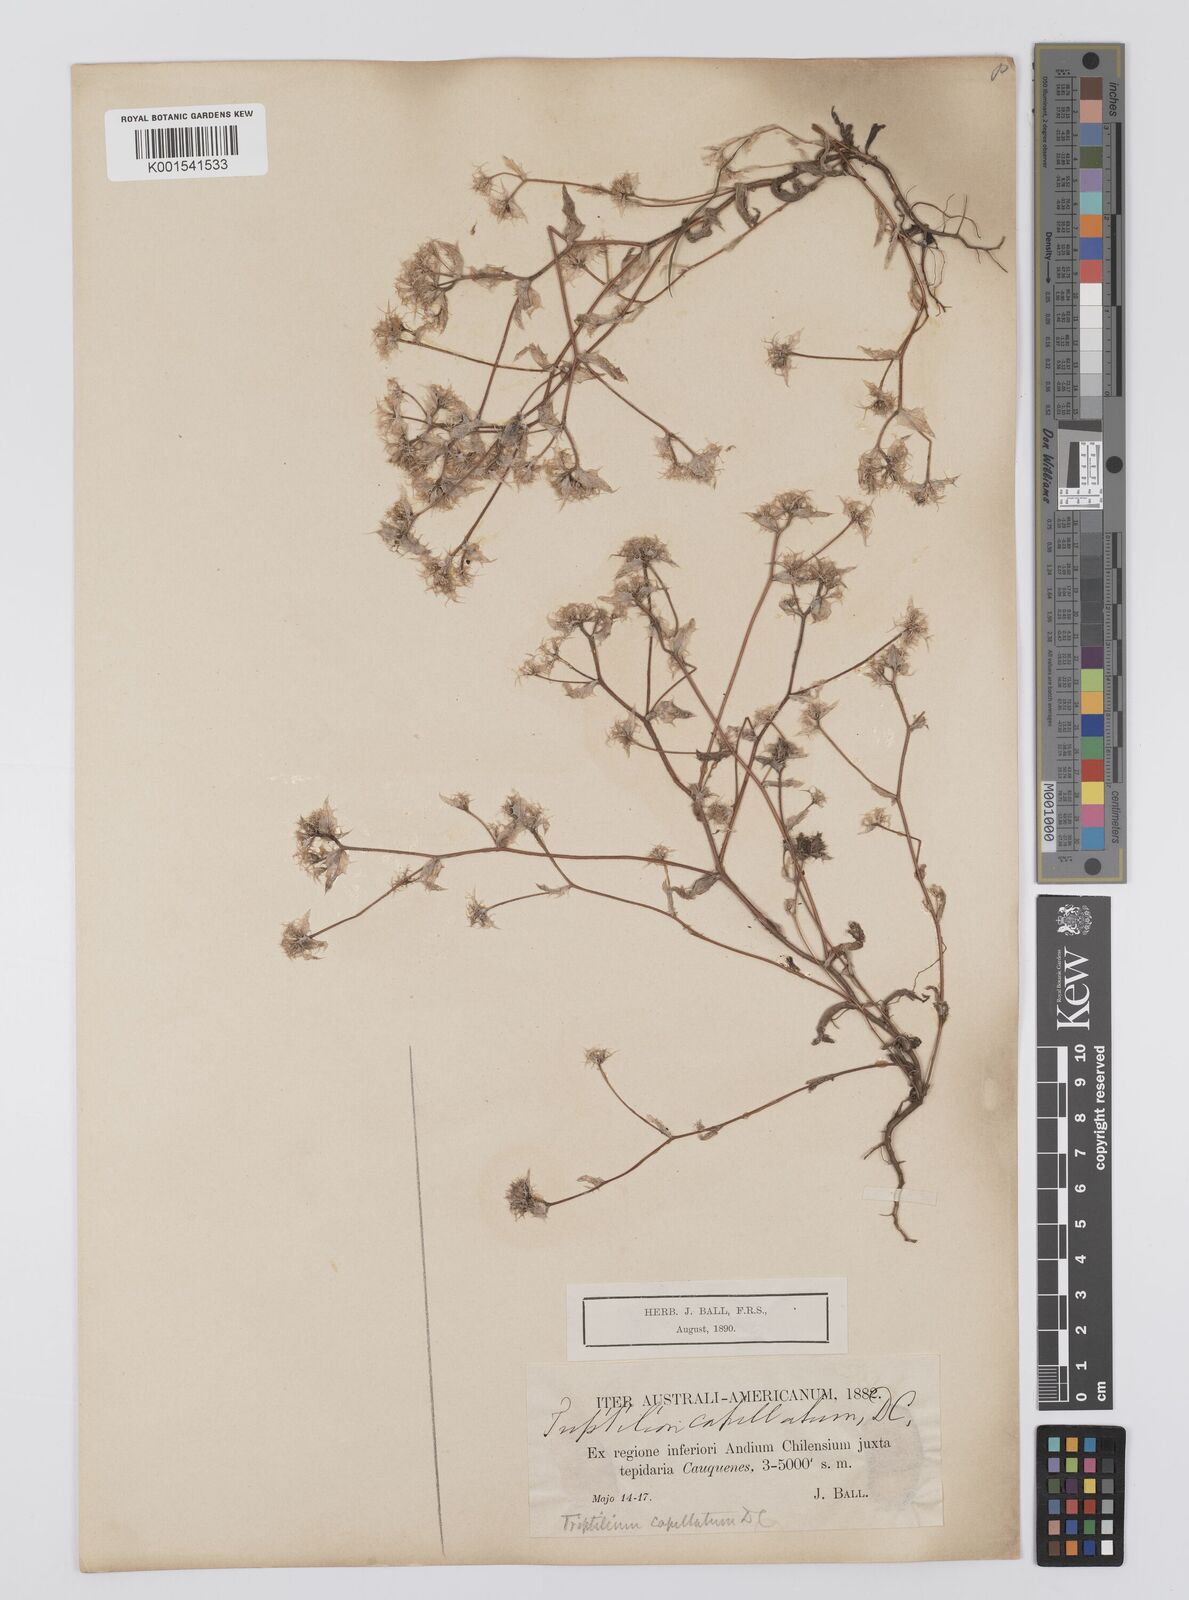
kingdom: Plantae
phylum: Tracheophyta
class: Magnoliopsida
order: Asterales
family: Asteraceae
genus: Triptilion
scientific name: Triptilion capillatum
